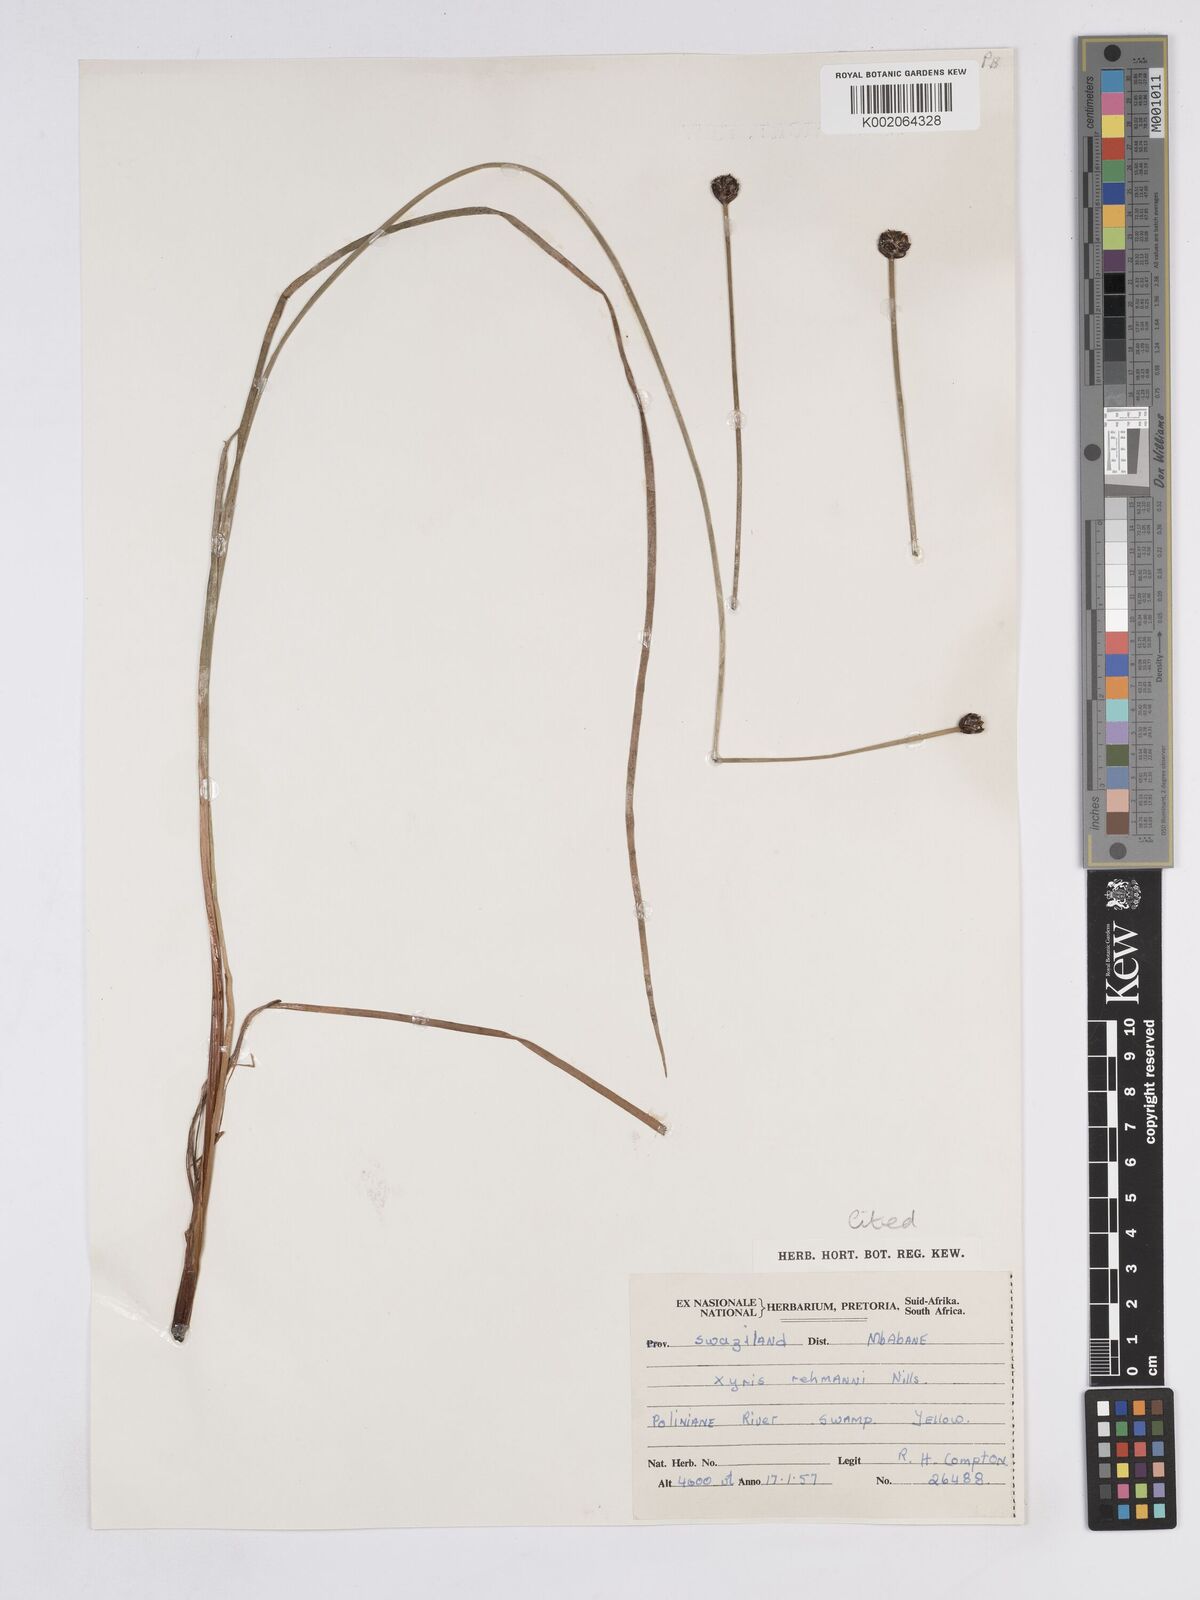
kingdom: Plantae
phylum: Tracheophyta
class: Liliopsida
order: Poales
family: Xyridaceae
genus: Xyris
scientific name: Xyris rehmannii
